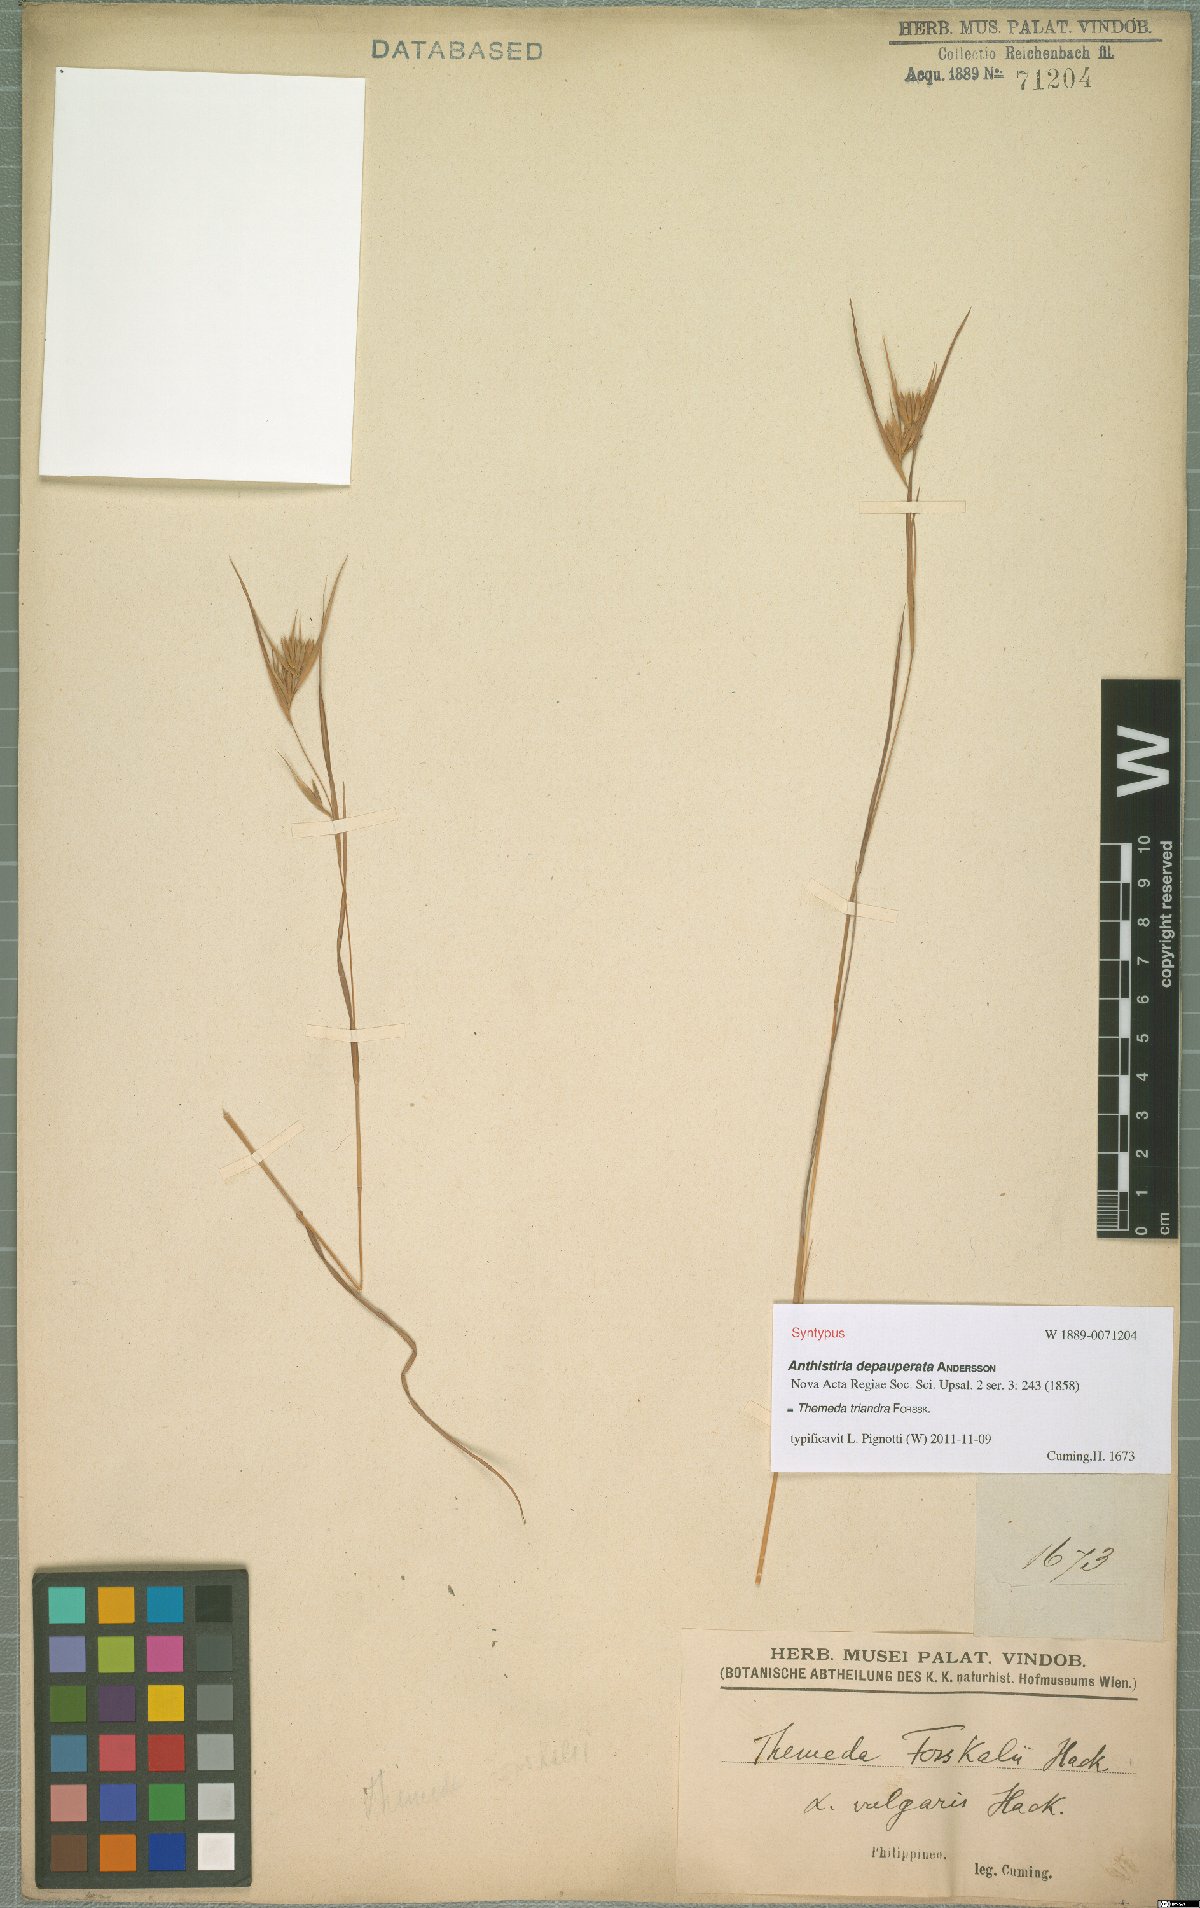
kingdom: Plantae
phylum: Tracheophyta
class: Liliopsida
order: Poales
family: Poaceae
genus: Themeda
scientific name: Themeda triandra
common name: Kangaroo grass
